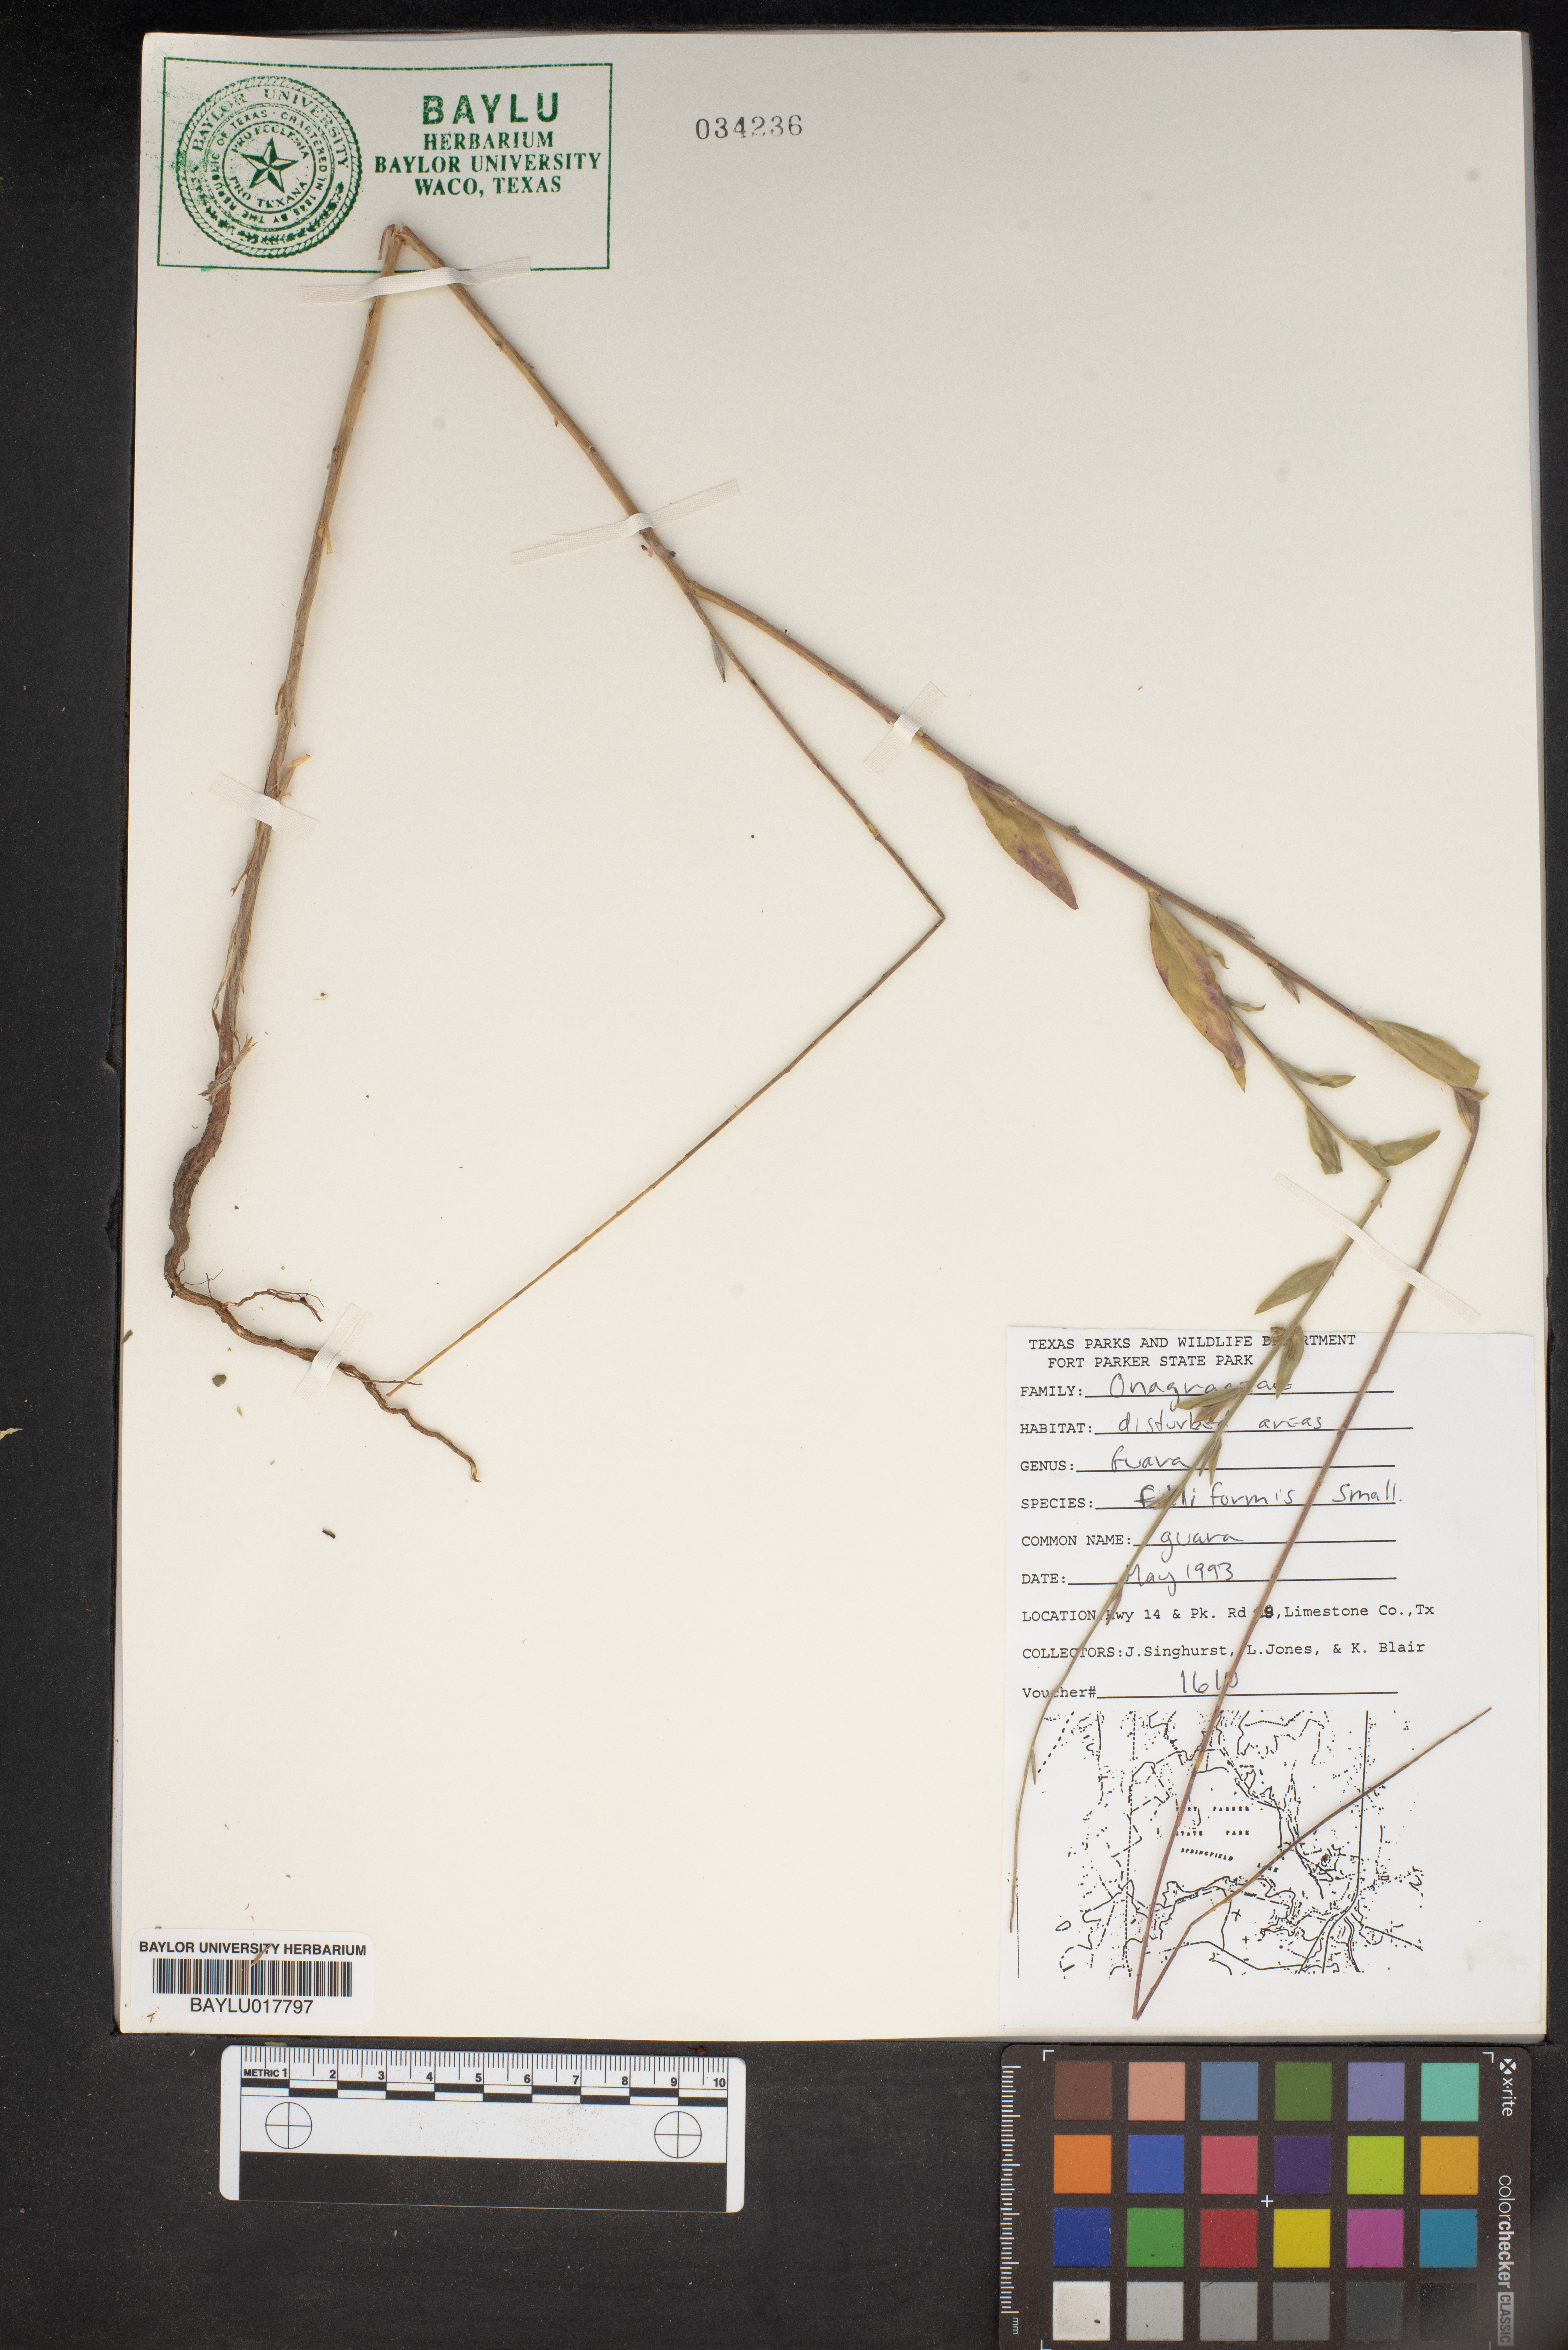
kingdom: Plantae
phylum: Tracheophyta
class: Magnoliopsida
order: Myrtales
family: Onagraceae
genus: Oenothera
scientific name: Oenothera filiformis
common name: Longflower beeblossom
